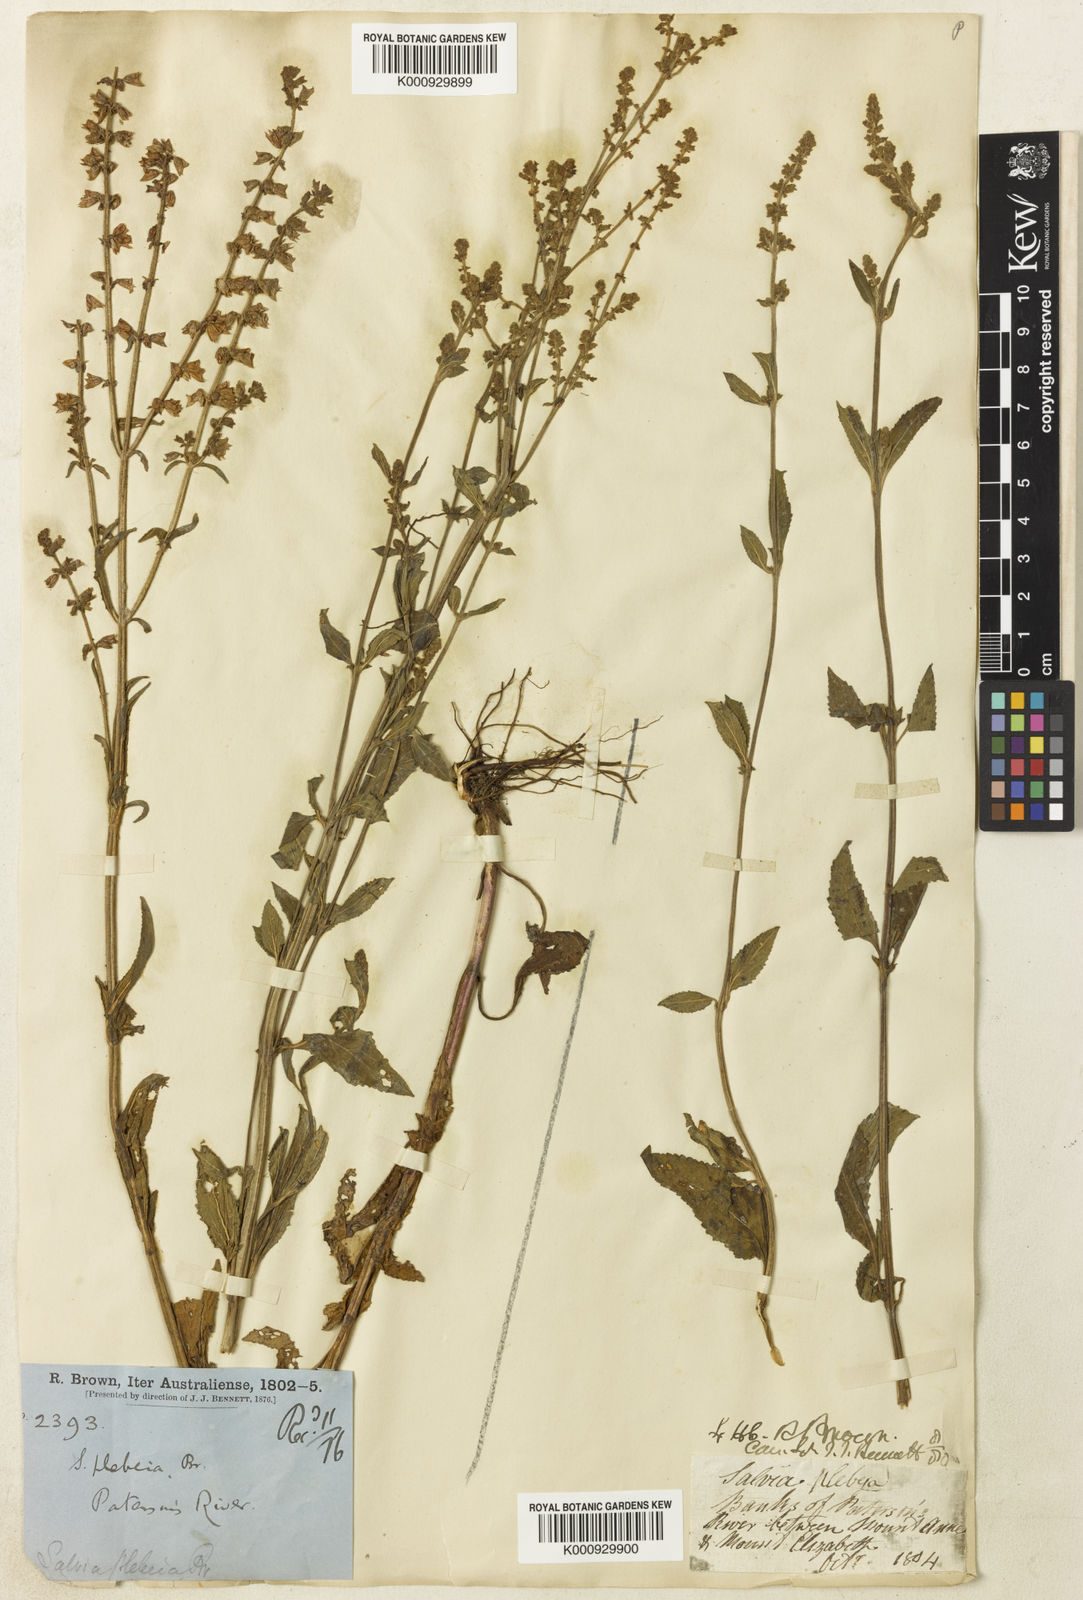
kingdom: Plantae
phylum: Tracheophyta
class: Magnoliopsida
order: Lamiales
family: Lamiaceae
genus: Salvia
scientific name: Salvia plebeia
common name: Australian sage
